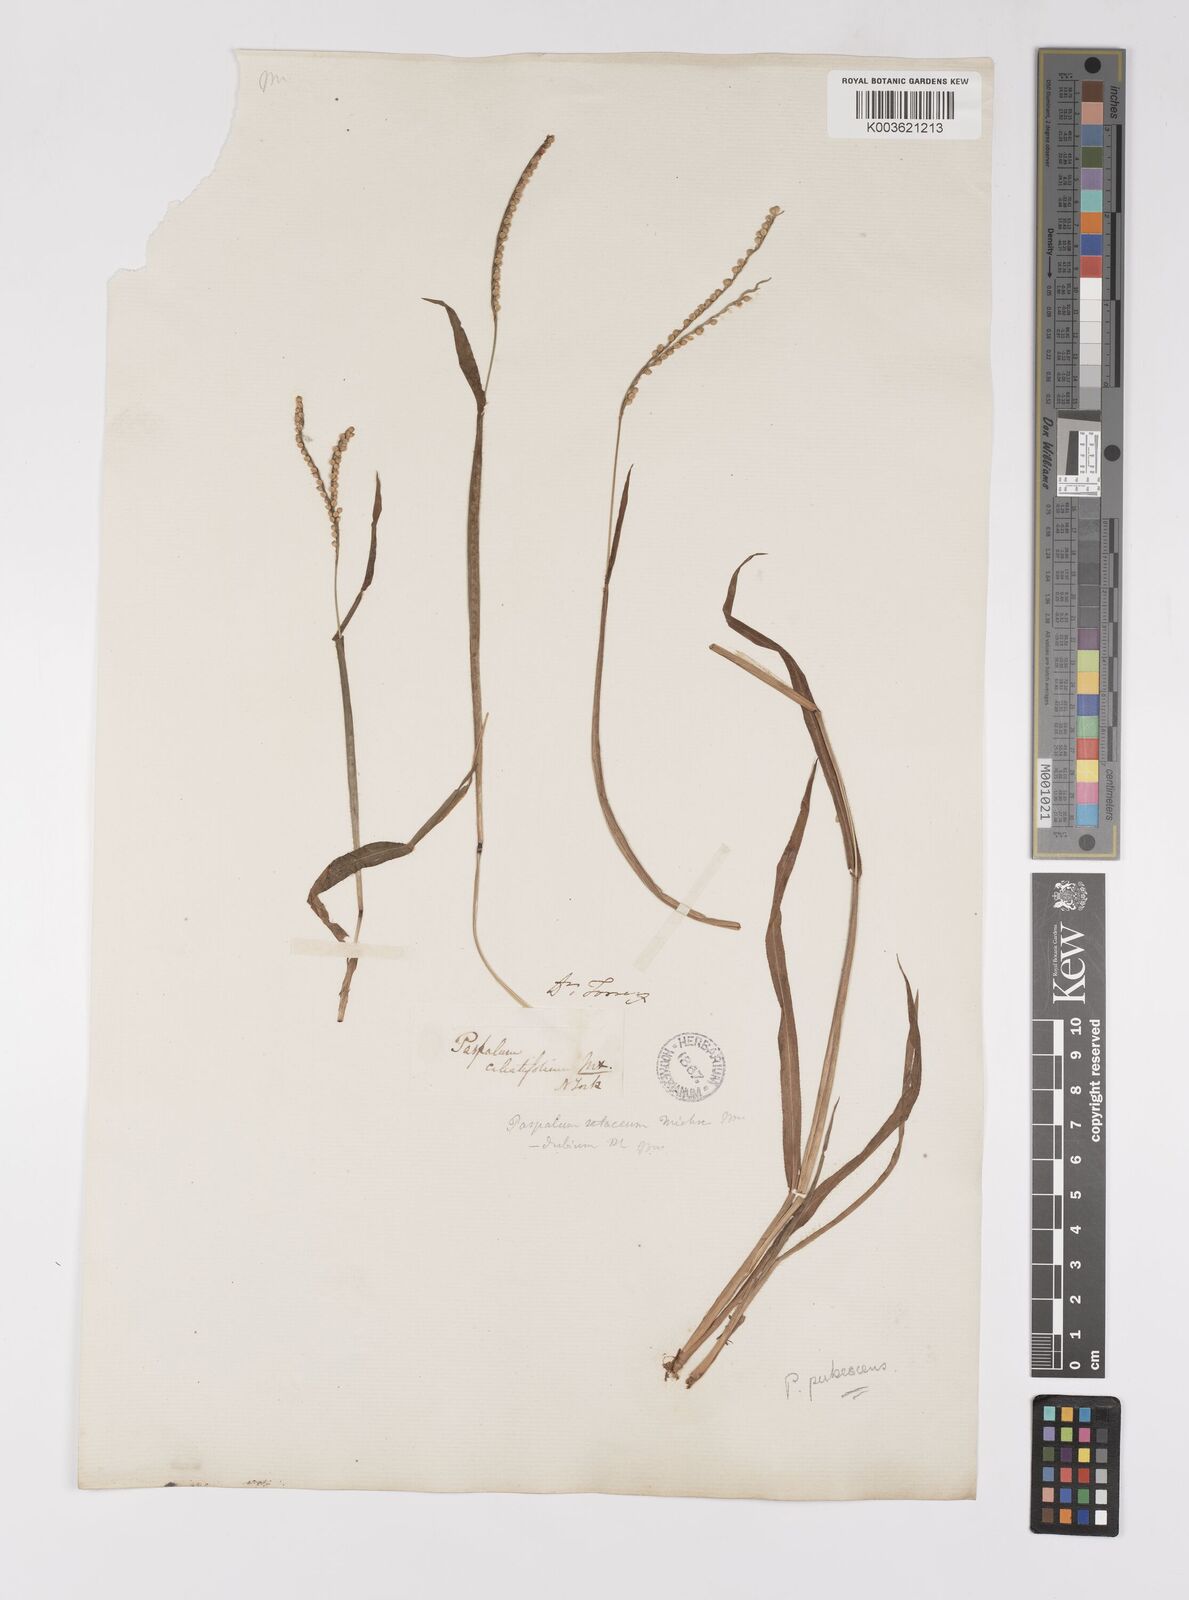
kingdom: Plantae
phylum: Tracheophyta
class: Liliopsida
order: Poales
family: Poaceae
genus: Paspalum
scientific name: Paspalum setaceum
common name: Slender paspalum
